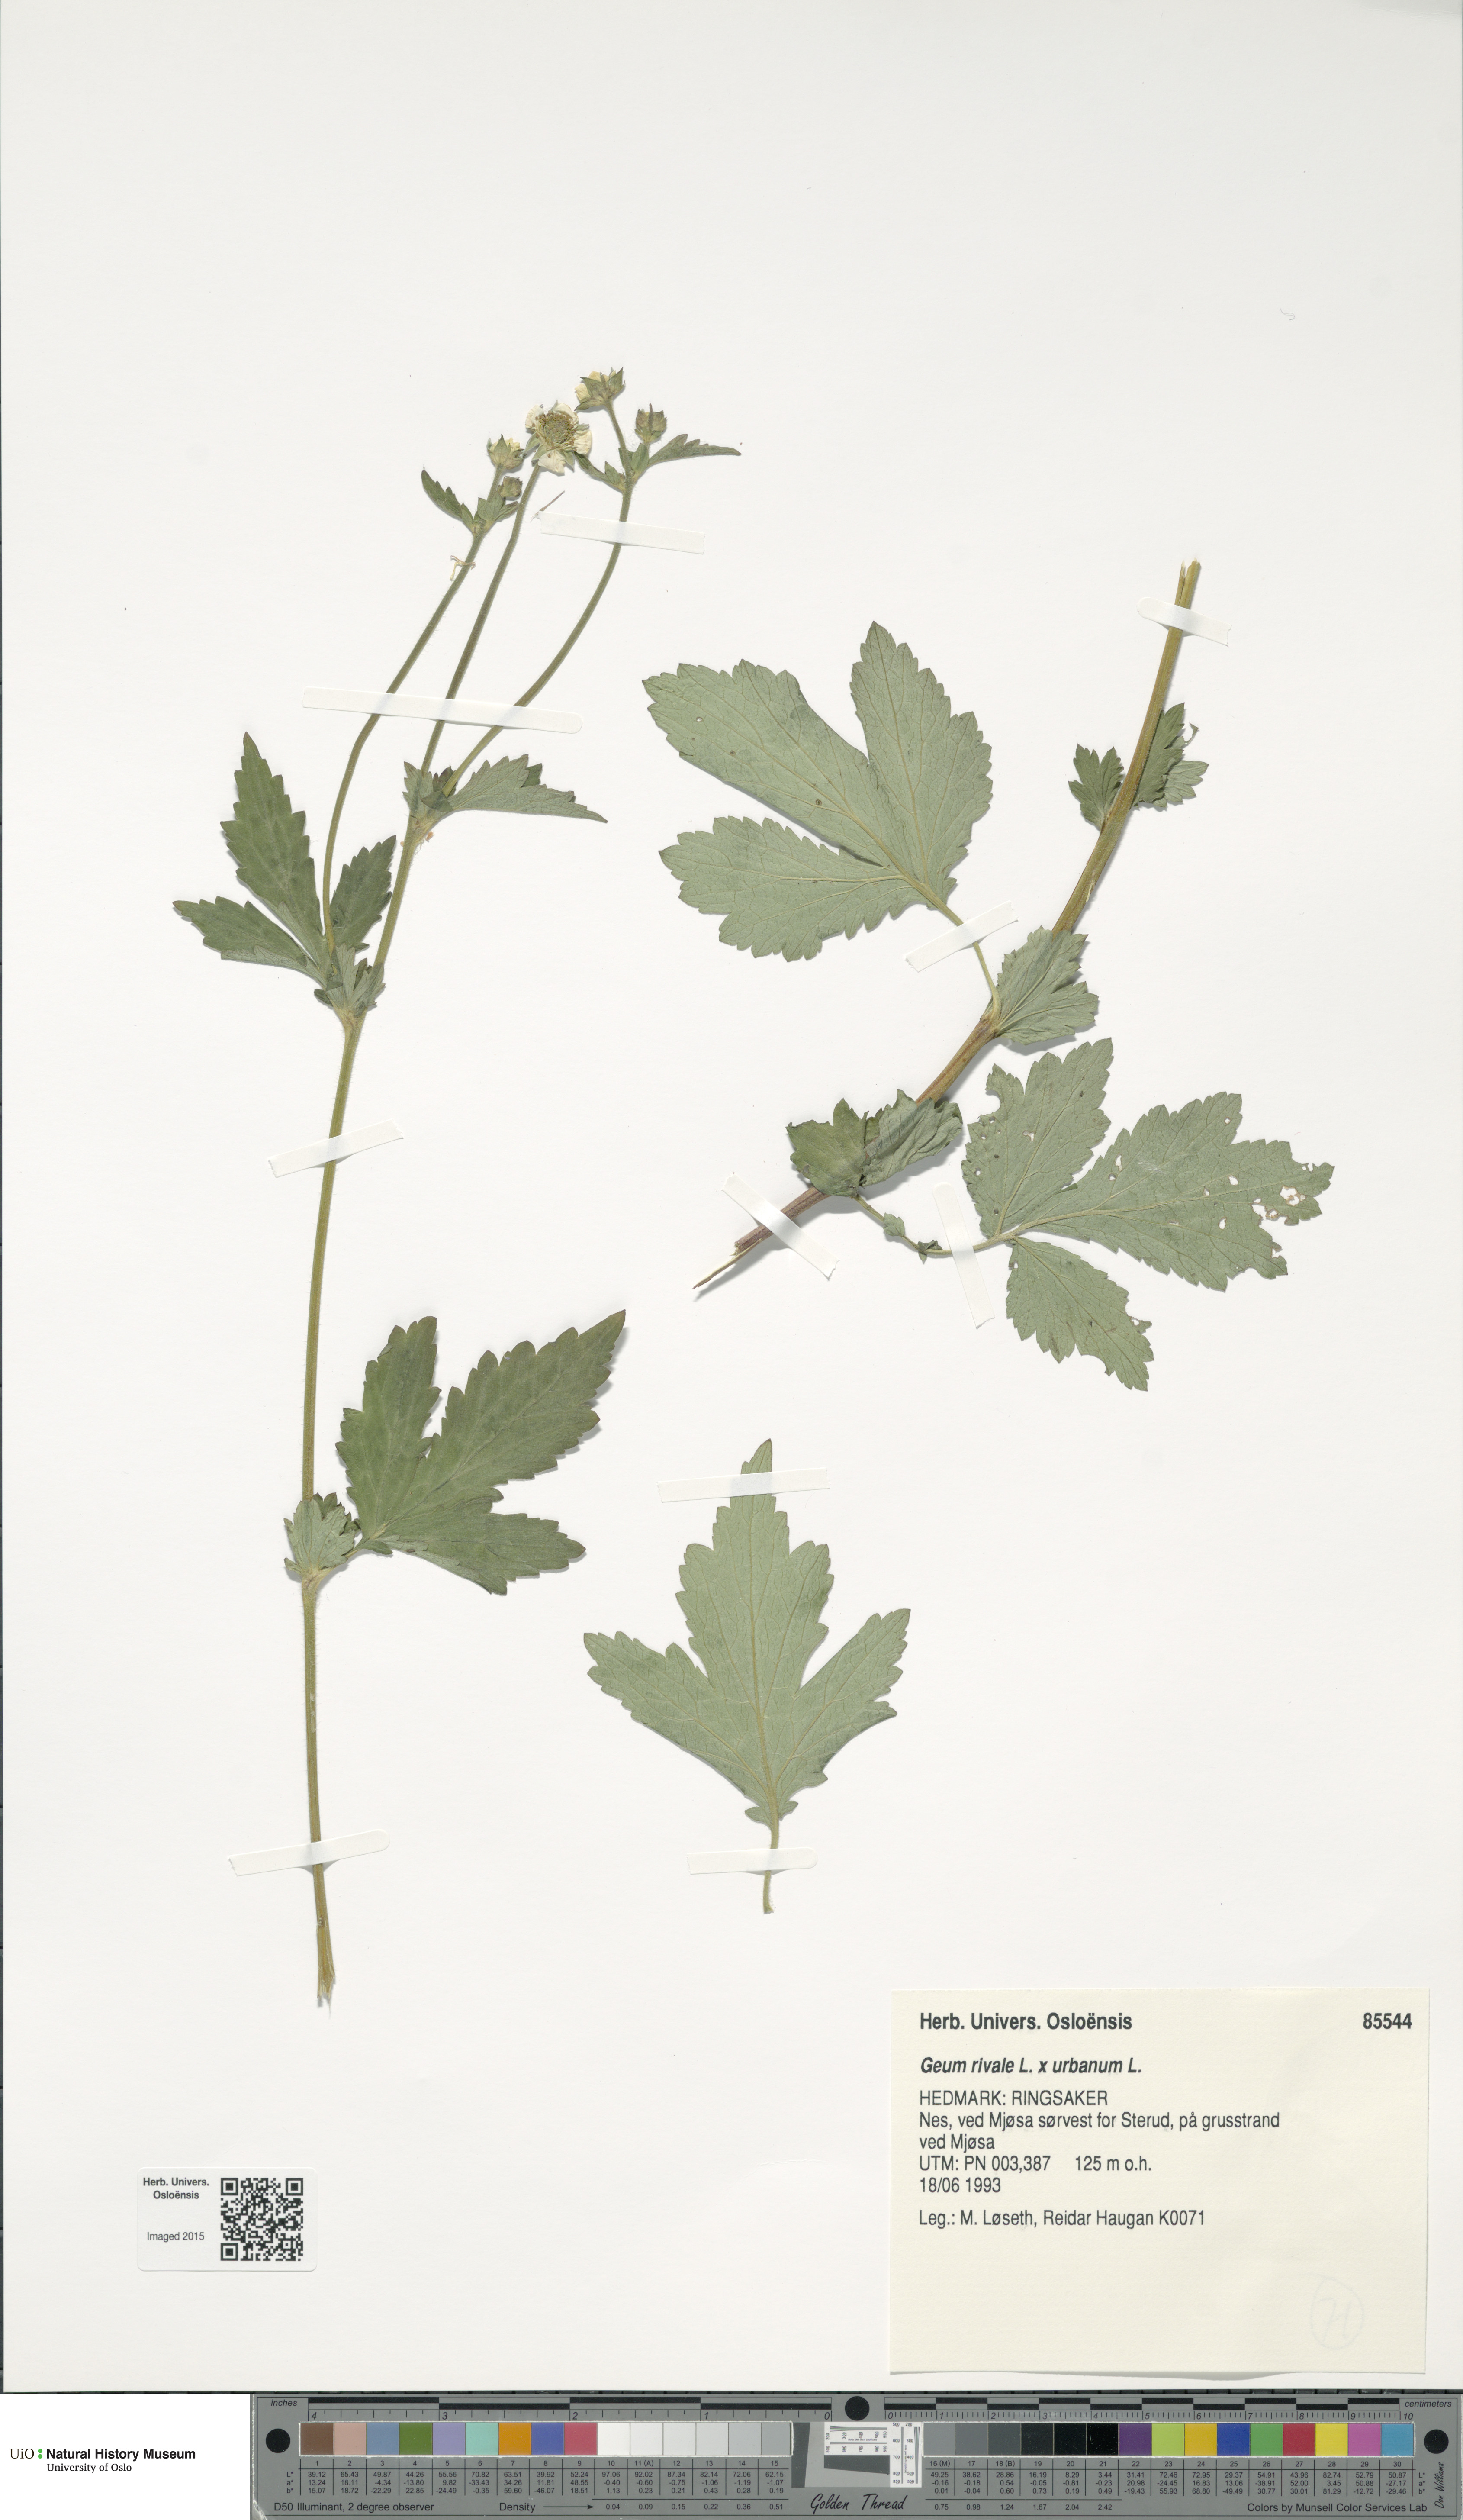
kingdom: Plantae
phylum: Tracheophyta
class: Magnoliopsida
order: Rosales
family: Rosaceae
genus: Geum
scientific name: Geum
